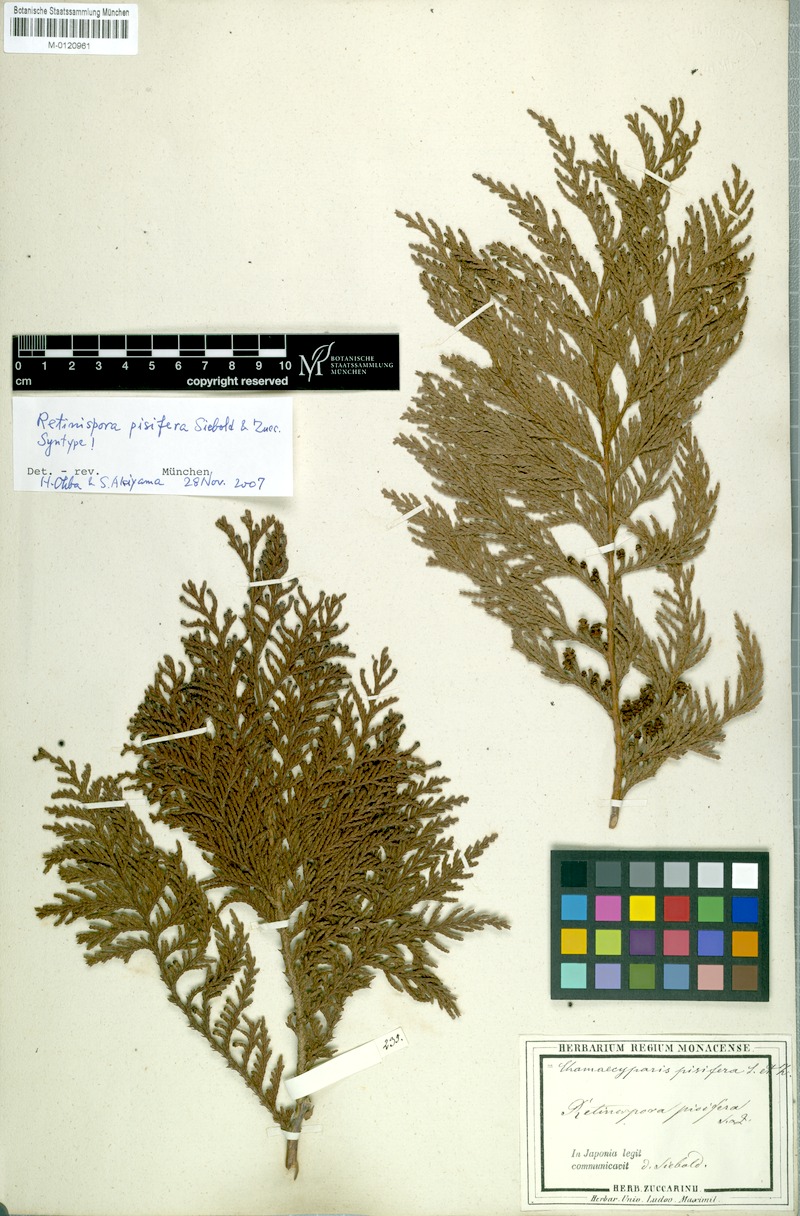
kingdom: Plantae
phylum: Tracheophyta
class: Pinopsida
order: Pinales
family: Cupressaceae
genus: Chamaecyparis
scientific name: Chamaecyparis pisifera
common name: Sawara cypress
